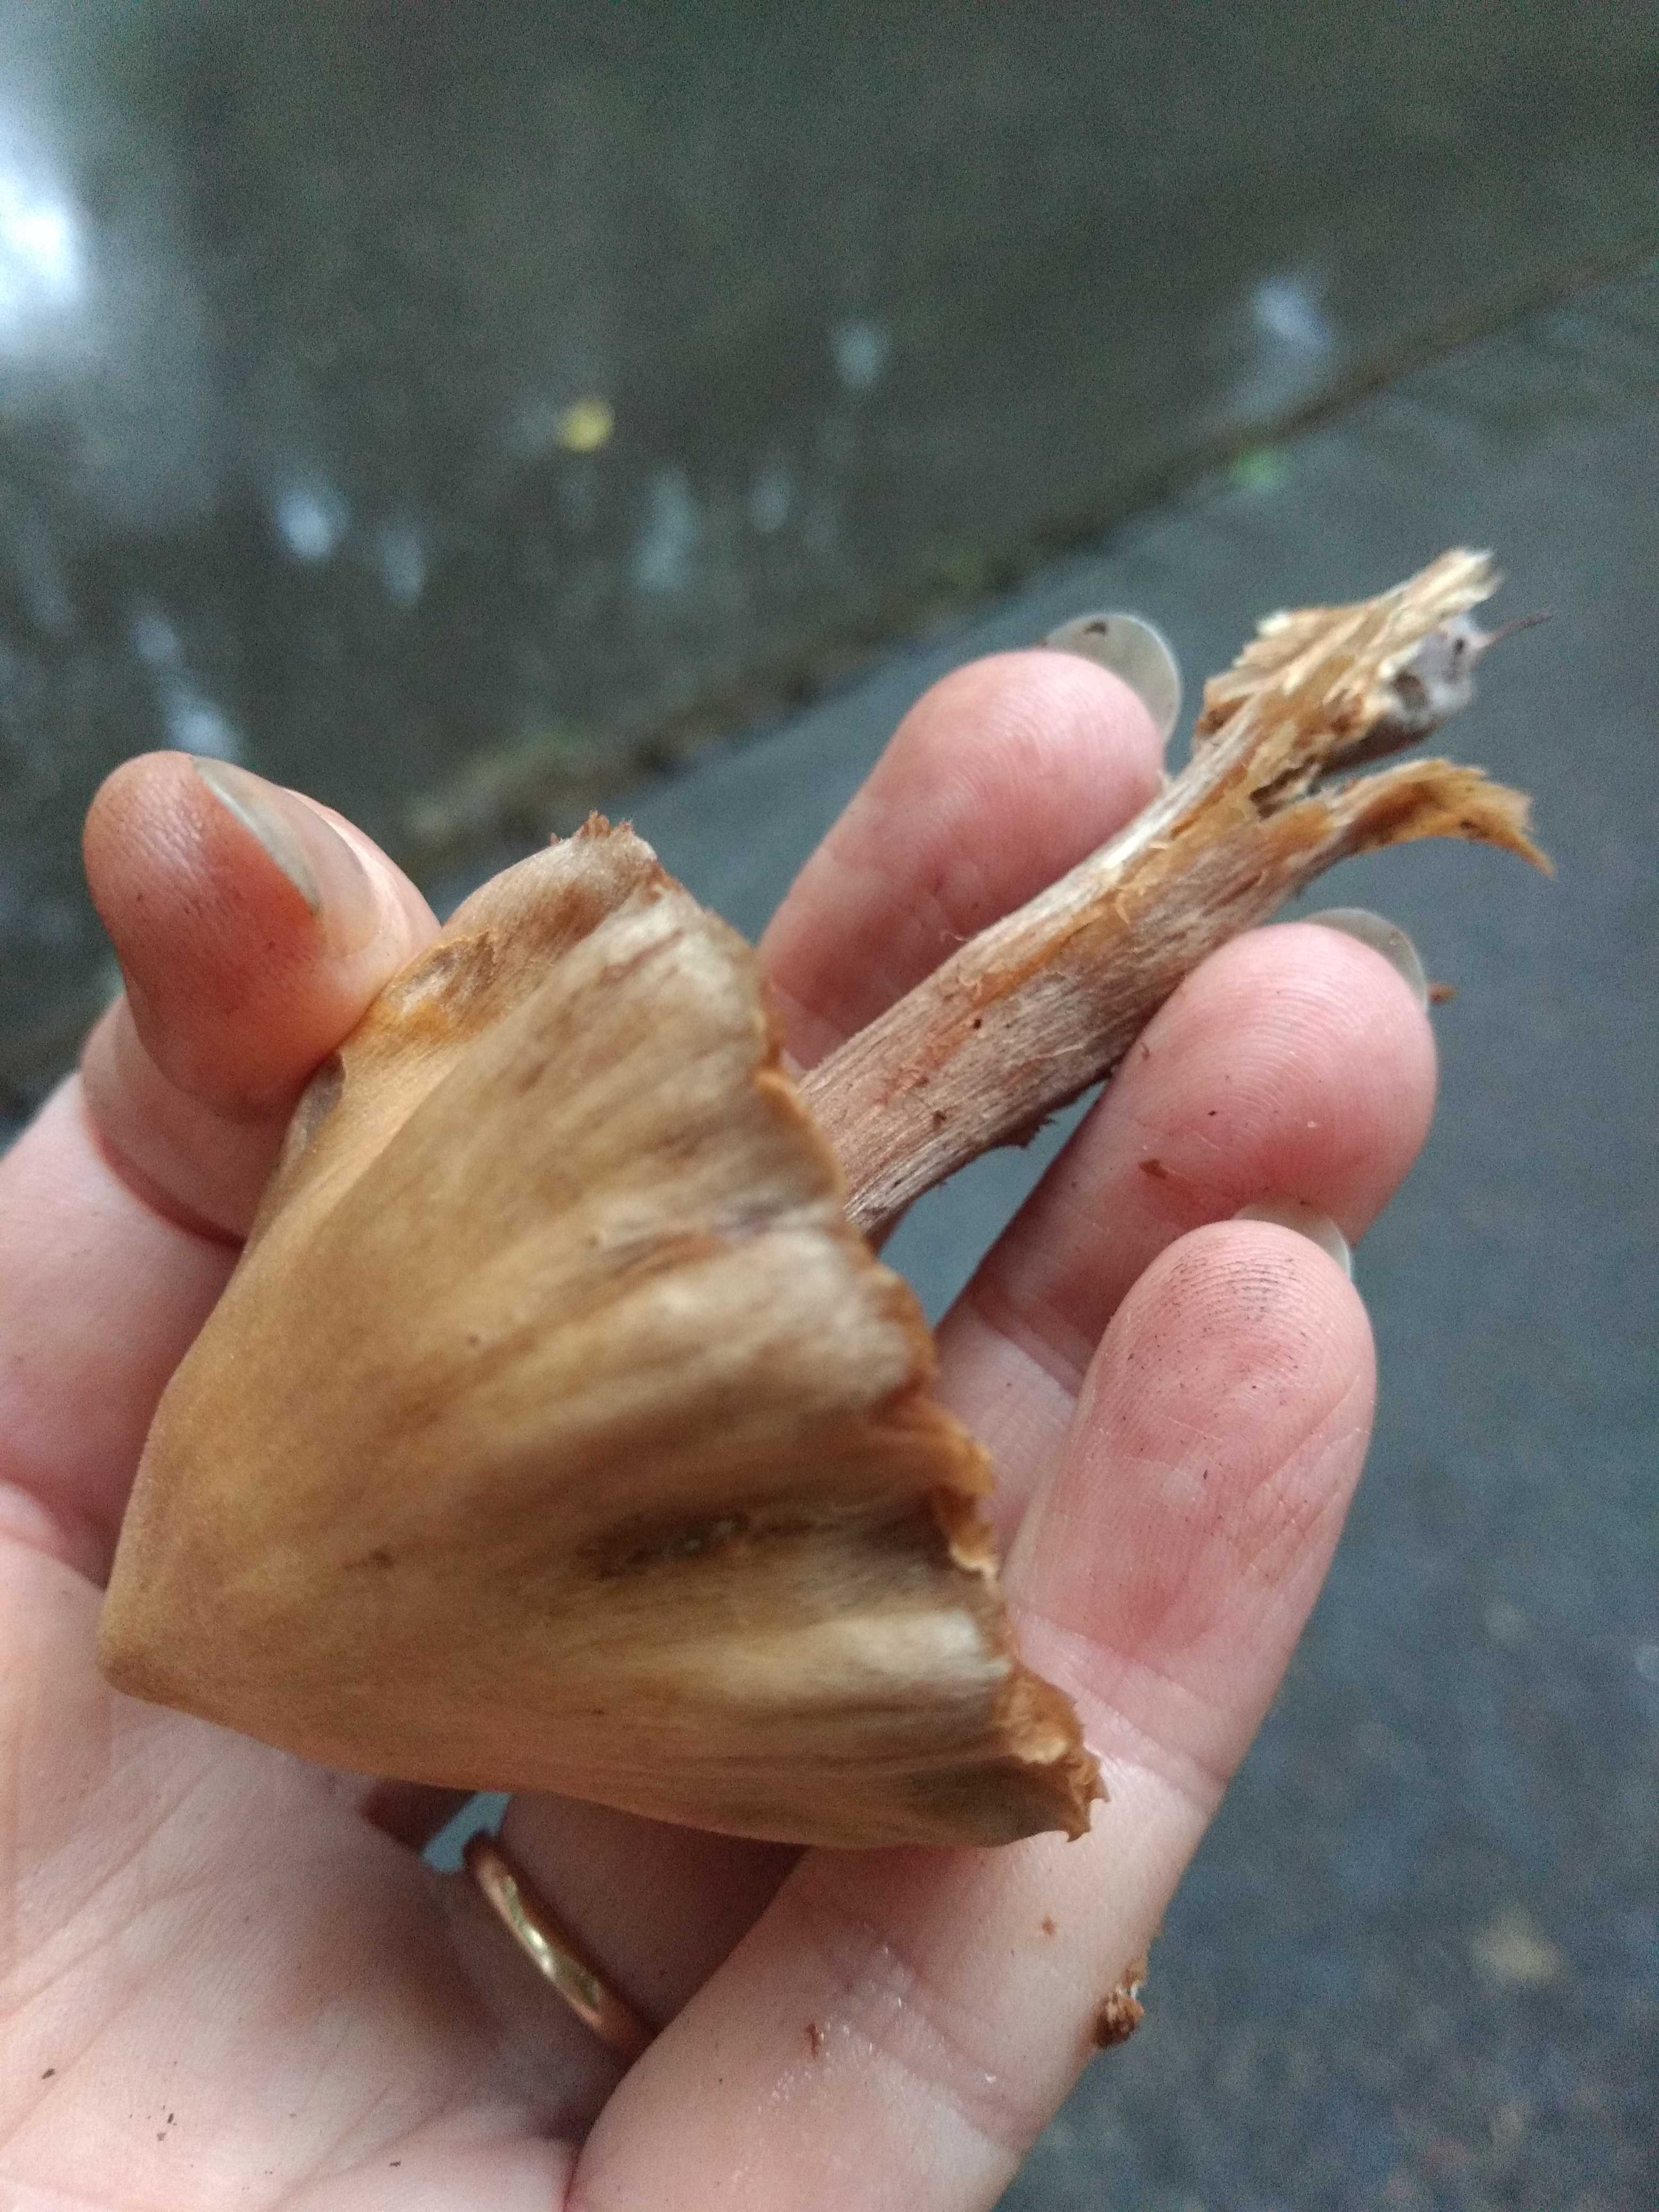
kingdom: Fungi
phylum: Basidiomycota
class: Agaricomycetes
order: Agaricales
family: Cortinariaceae
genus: Cortinarius
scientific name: Cortinarius
